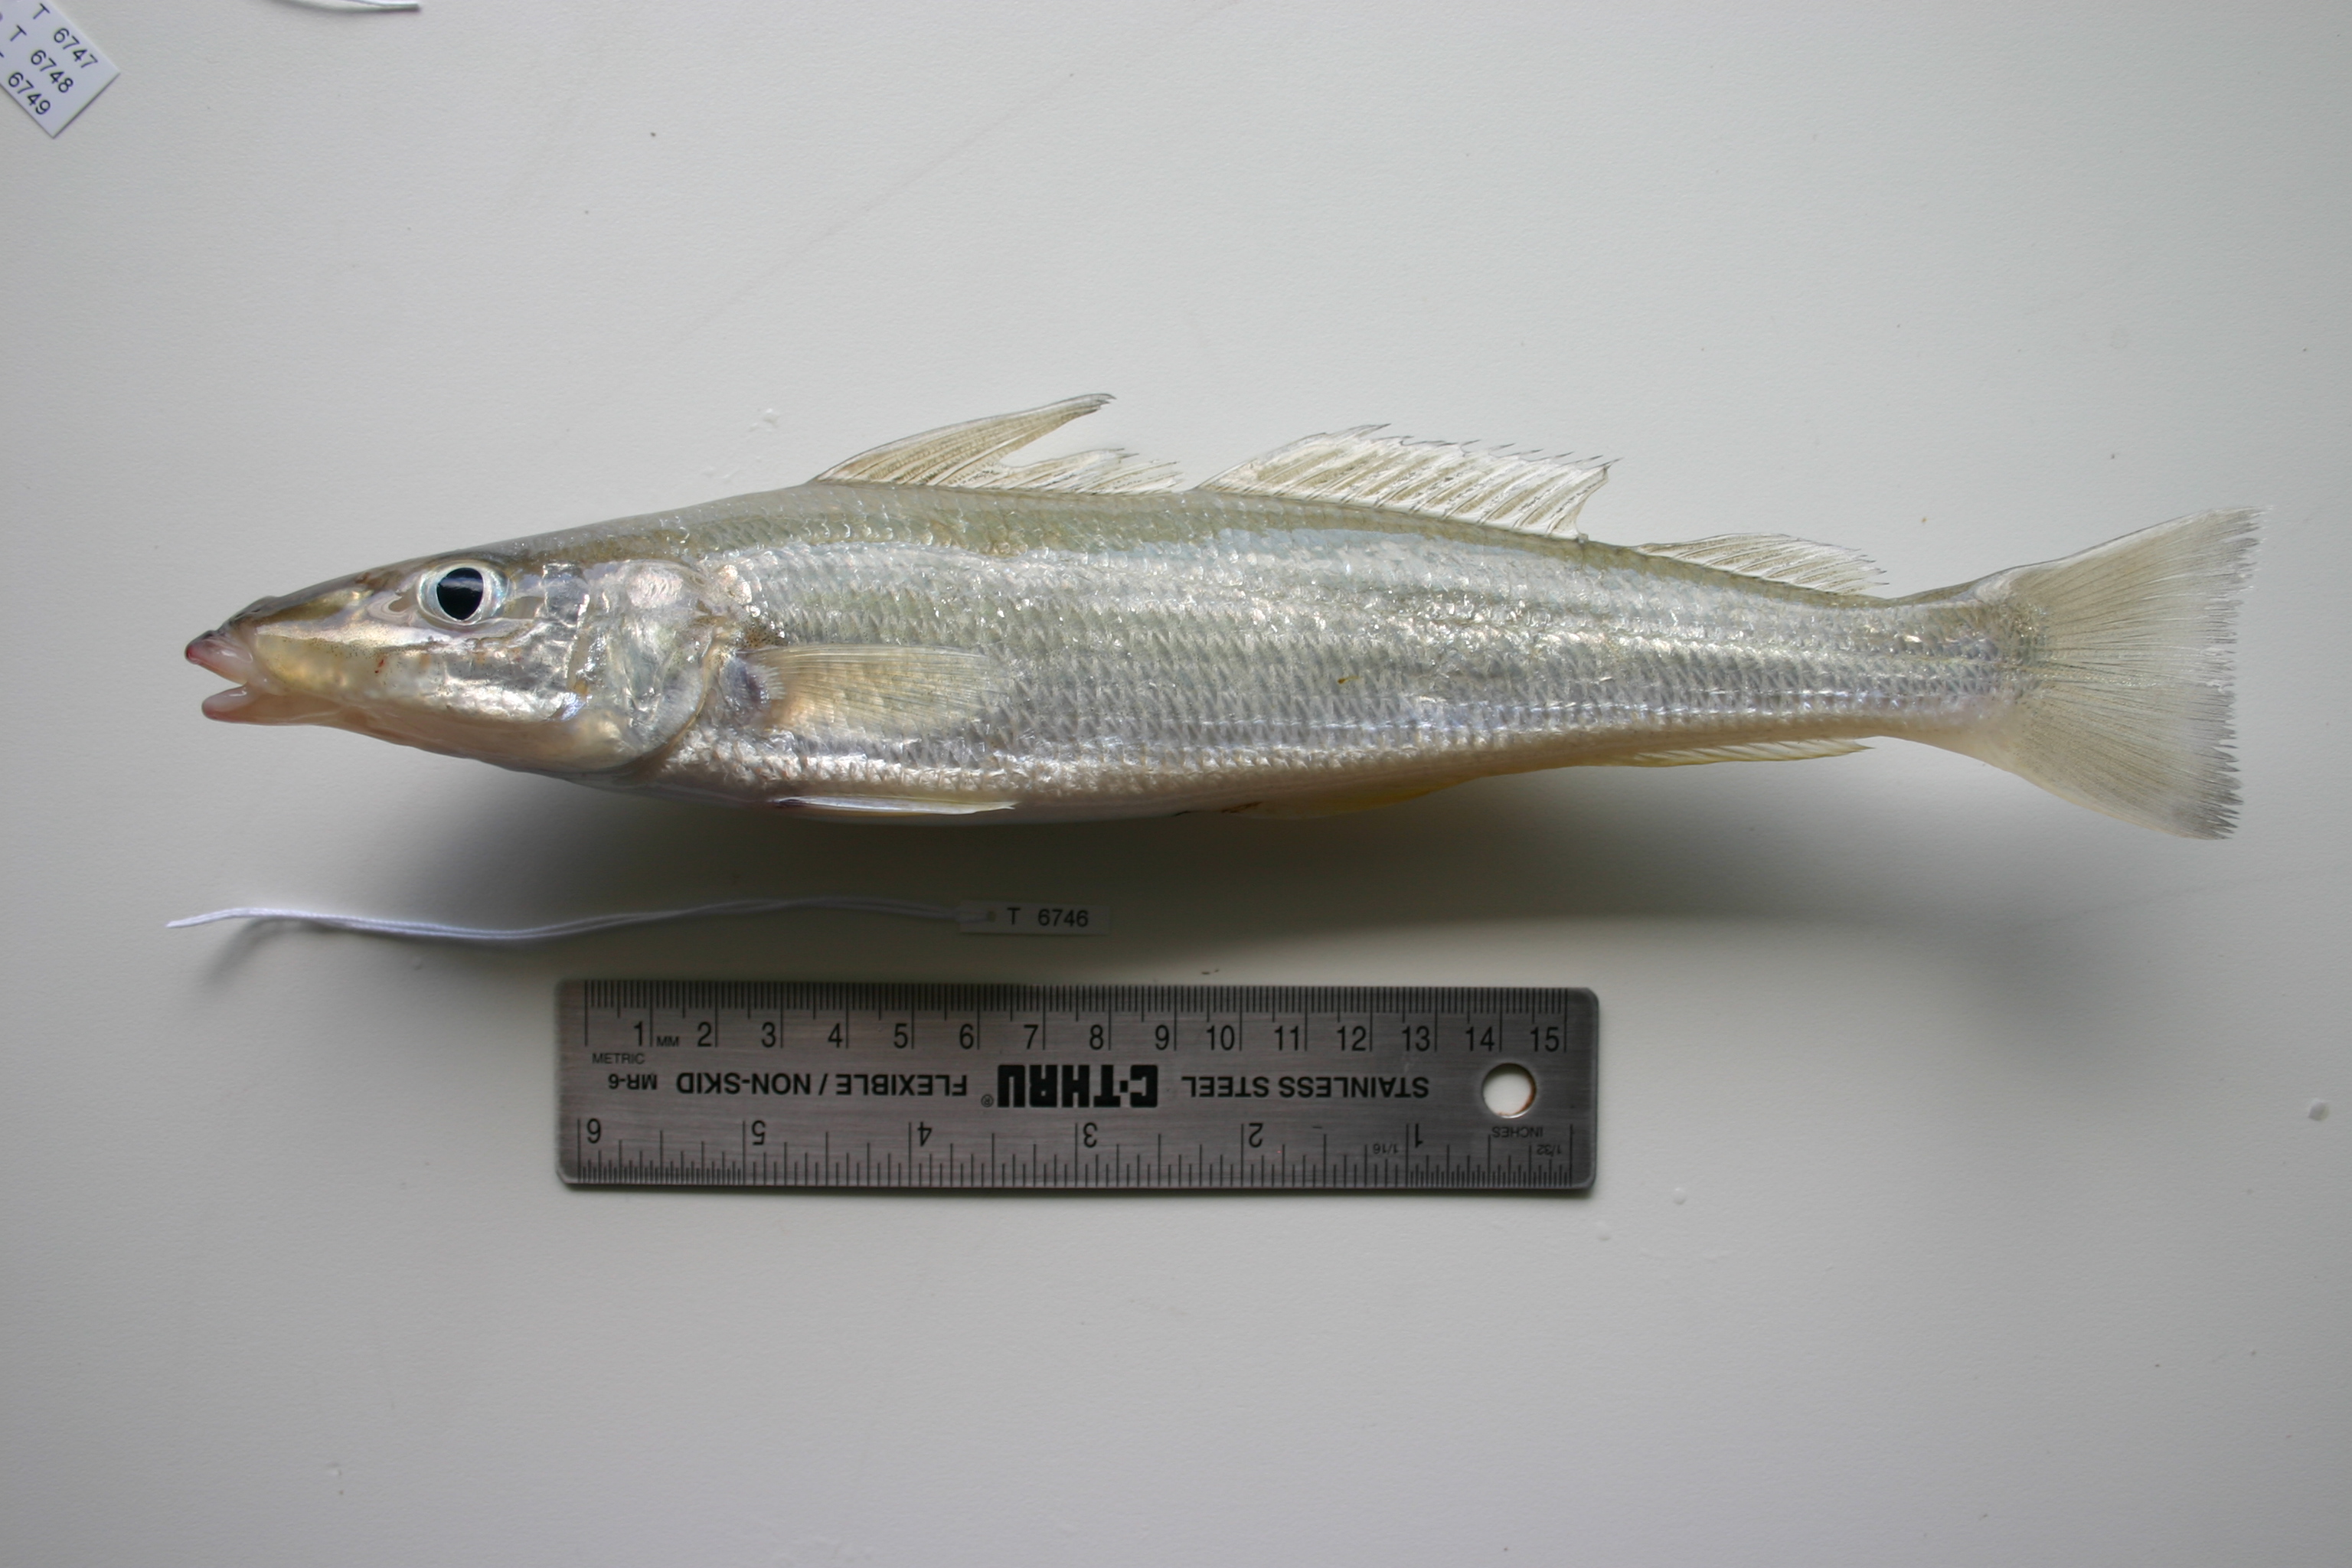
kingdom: Animalia
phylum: Chordata
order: Perciformes
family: Sillaginidae
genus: Sillago
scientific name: Sillago sihama
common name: Silver sillago
